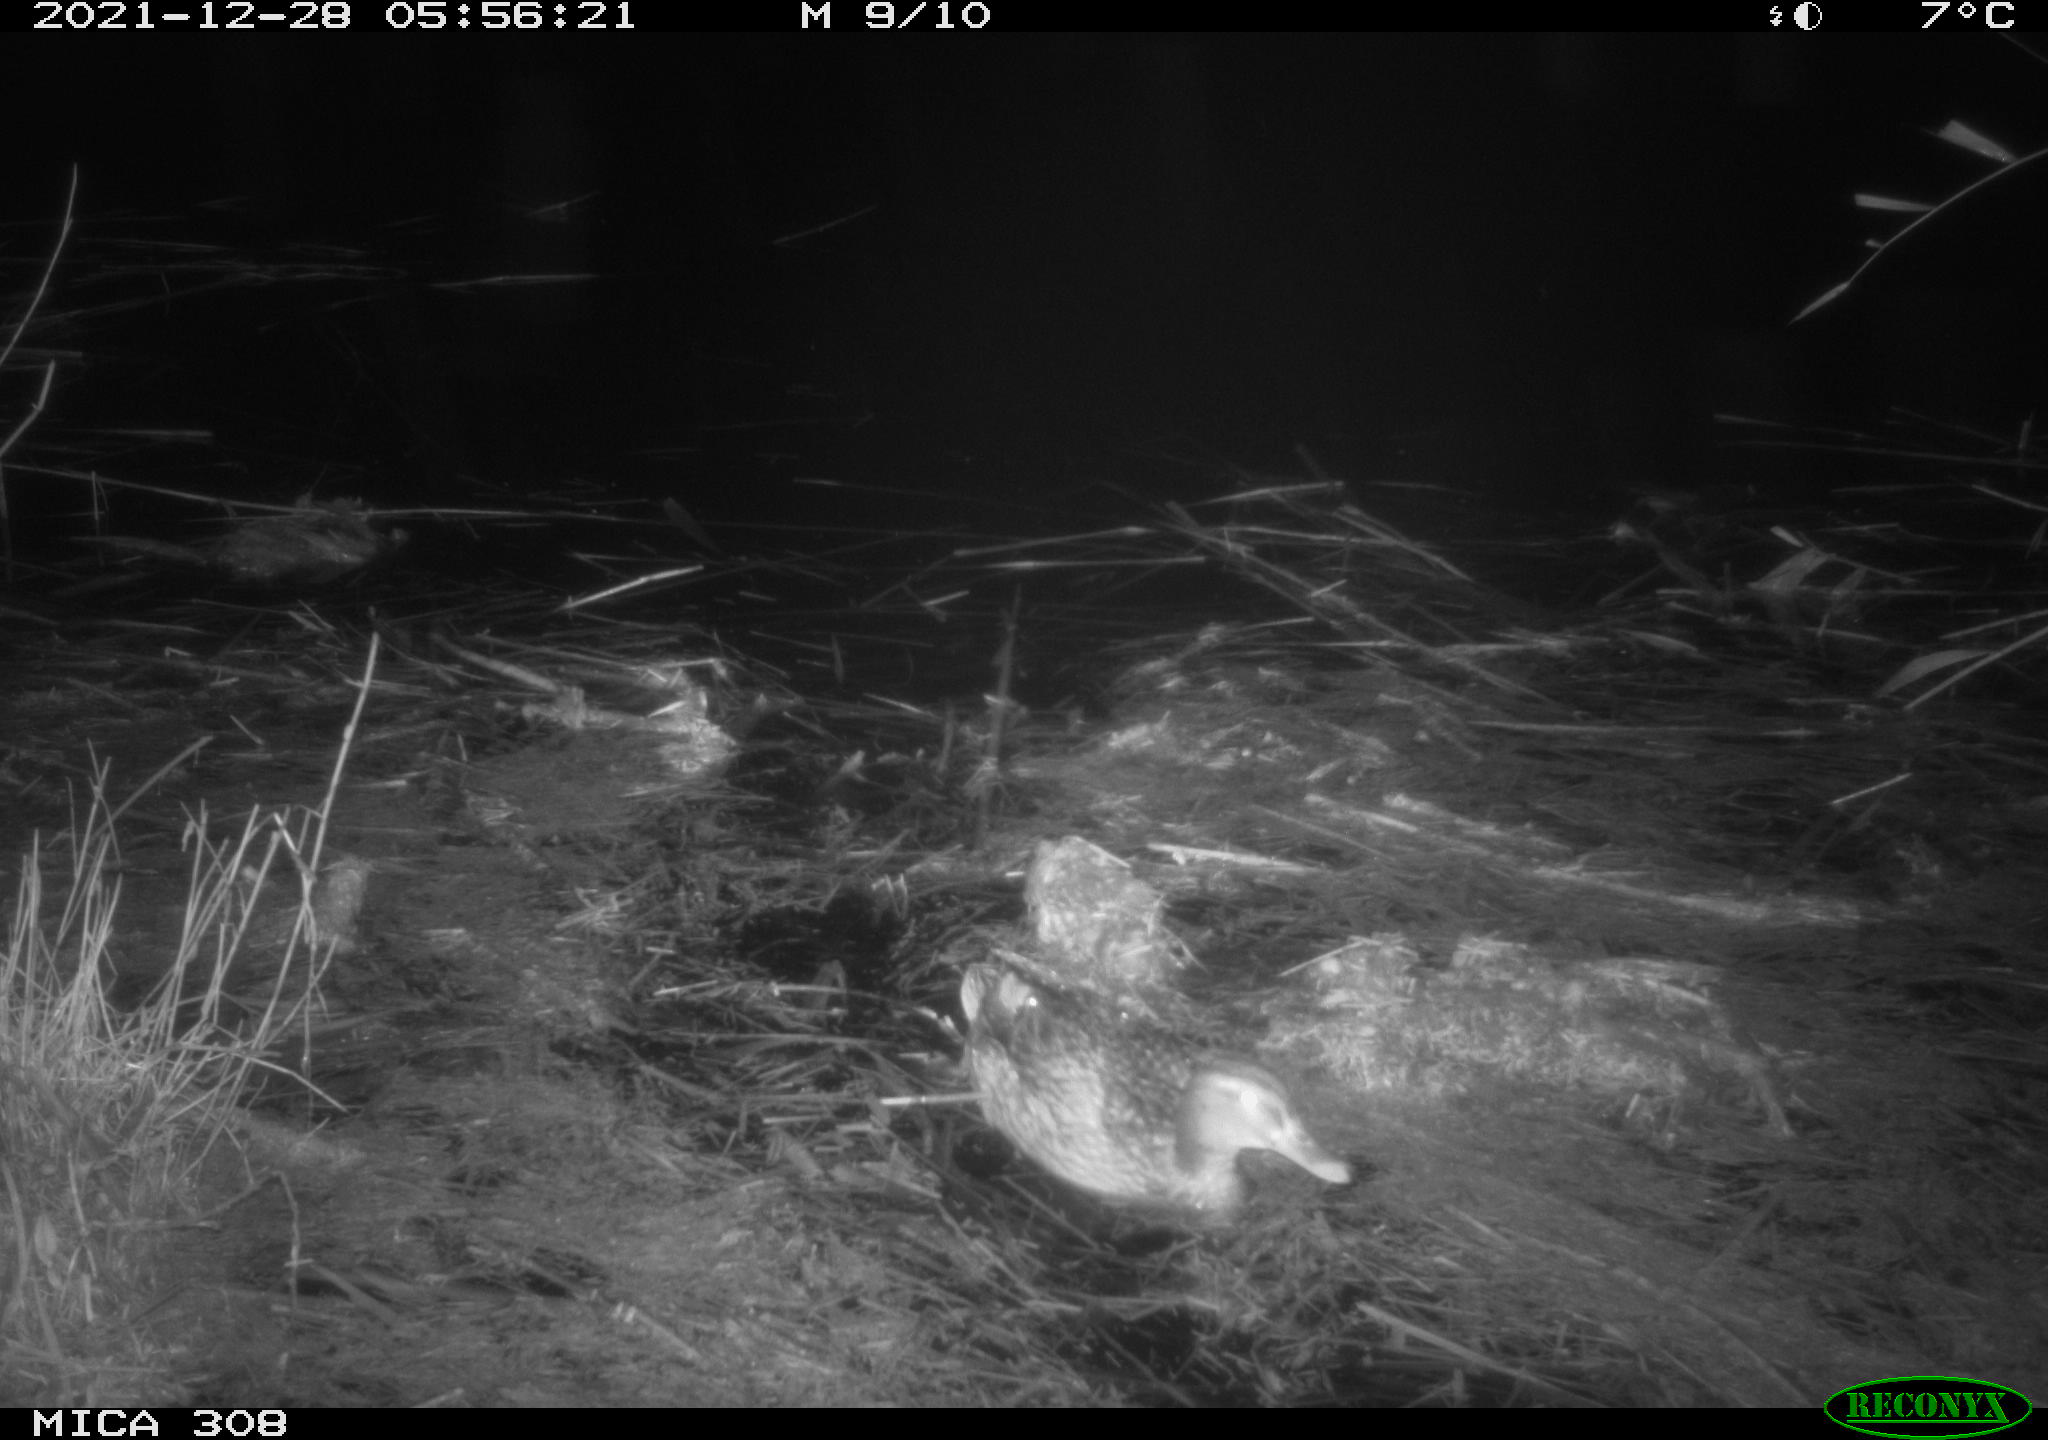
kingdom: Animalia
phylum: Chordata
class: Aves
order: Anseriformes
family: Anatidae
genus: Anas
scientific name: Anas platyrhynchos
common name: Mallard
